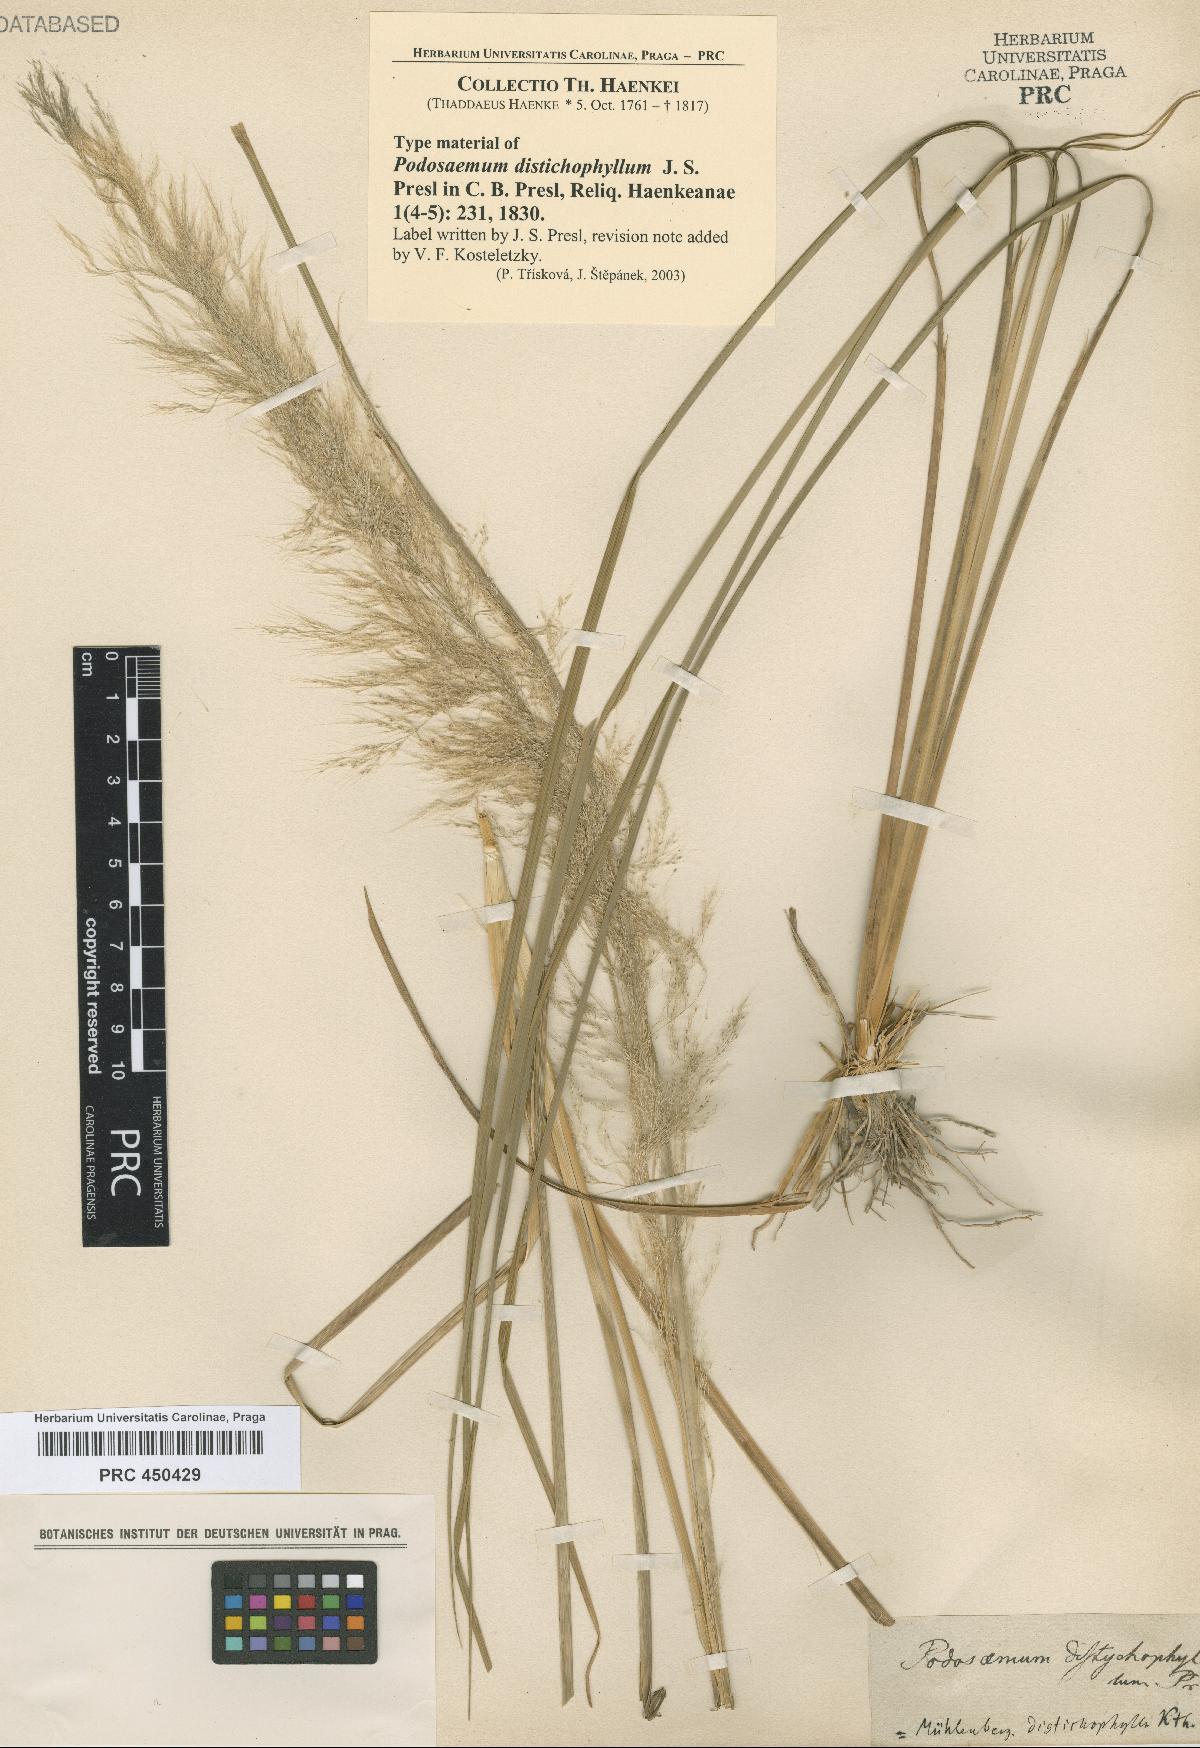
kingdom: Plantae
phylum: Tracheophyta
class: Liliopsida
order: Poales
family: Poaceae
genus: Muhlenbergia
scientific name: Muhlenbergia distichophylla
